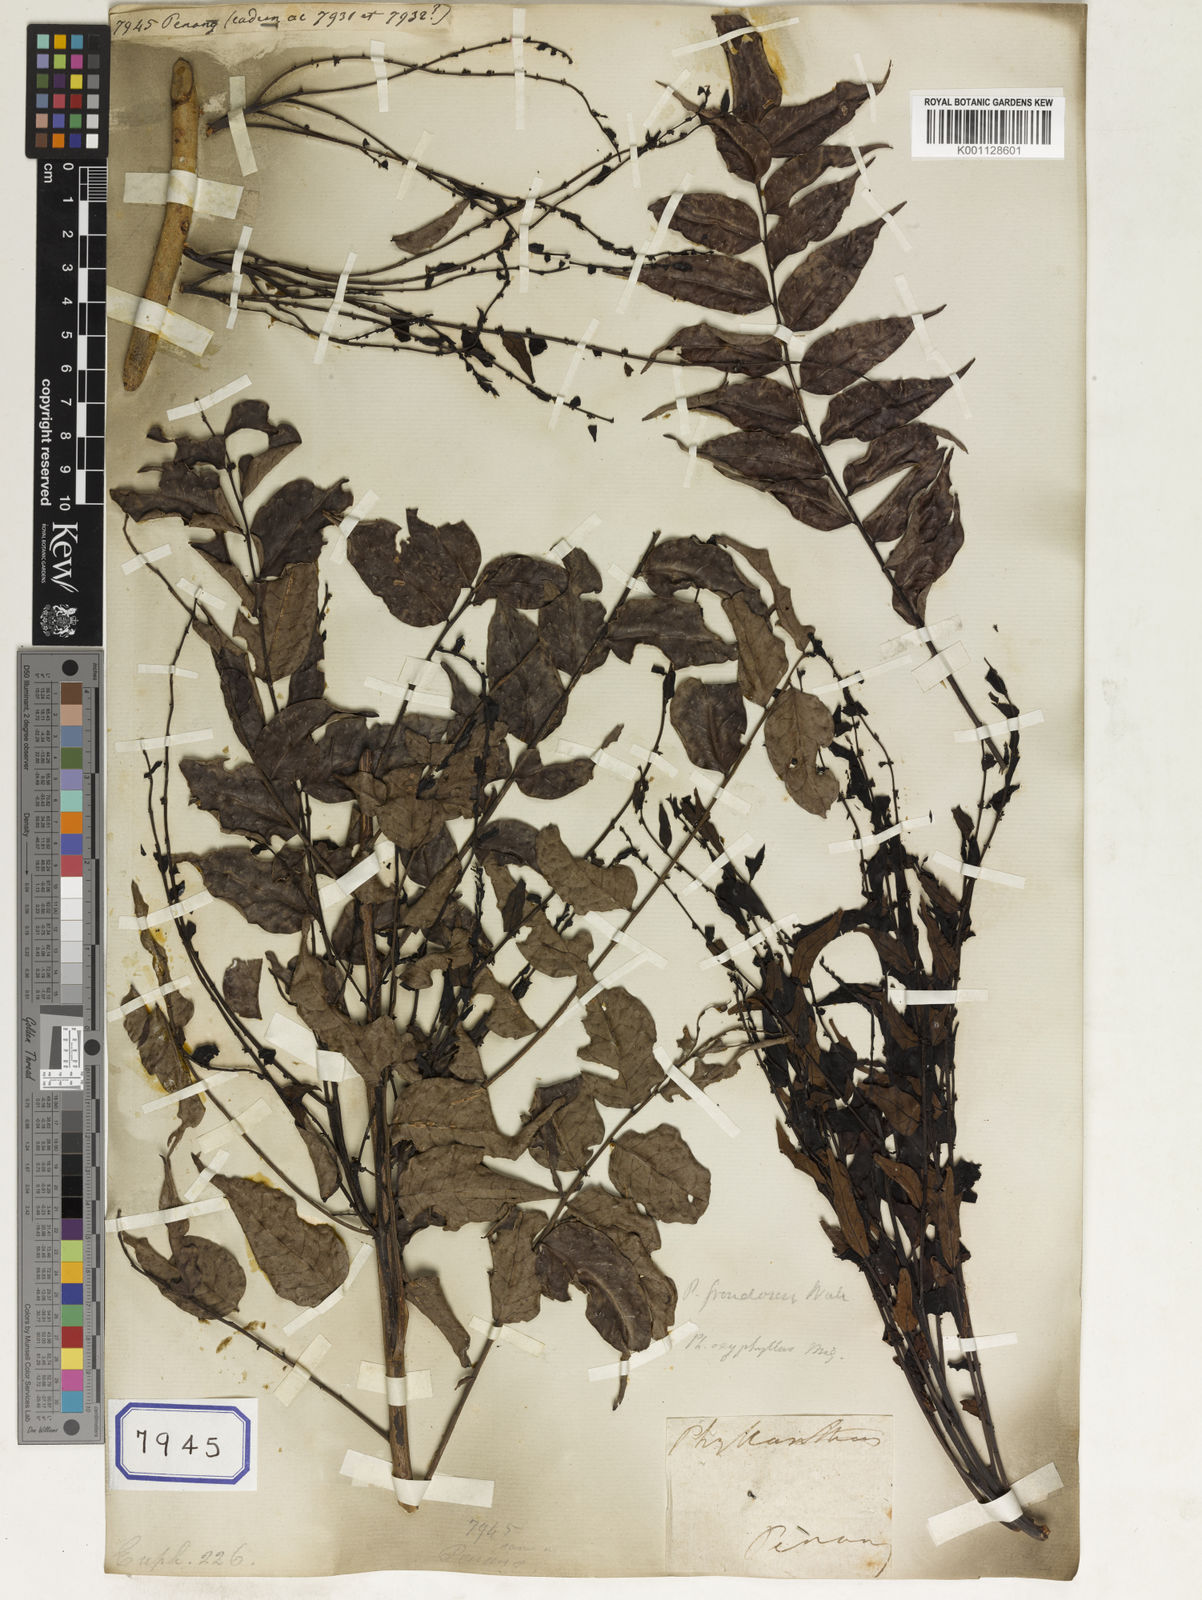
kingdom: Plantae
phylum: Tracheophyta
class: Magnoliopsida
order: Malpighiales
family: Euphorbiaceae
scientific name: Euphorbiaceae
